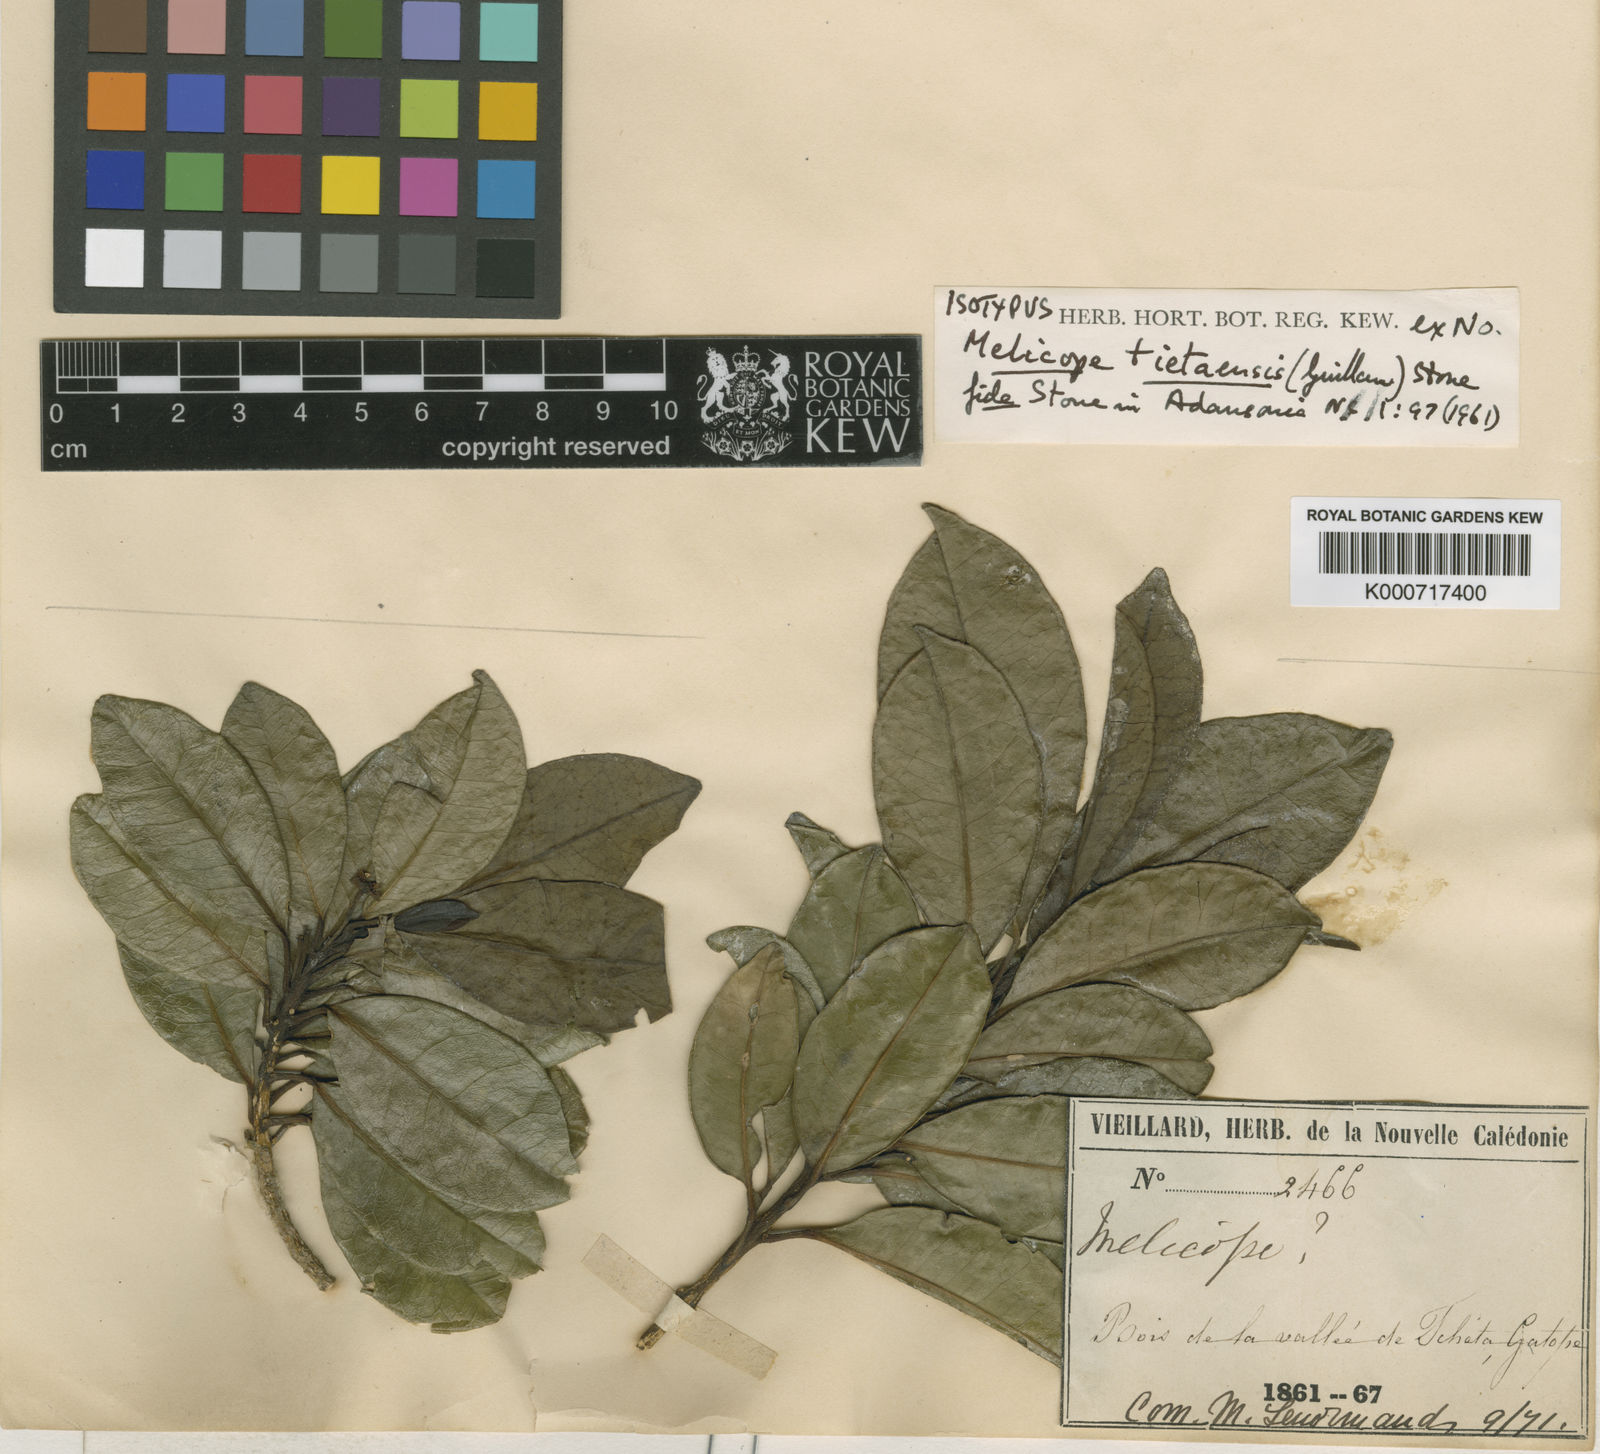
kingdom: Plantae
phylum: Tracheophyta
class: Magnoliopsida
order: Sapindales
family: Rutaceae
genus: Euodia
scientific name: Euodia tietaensis
